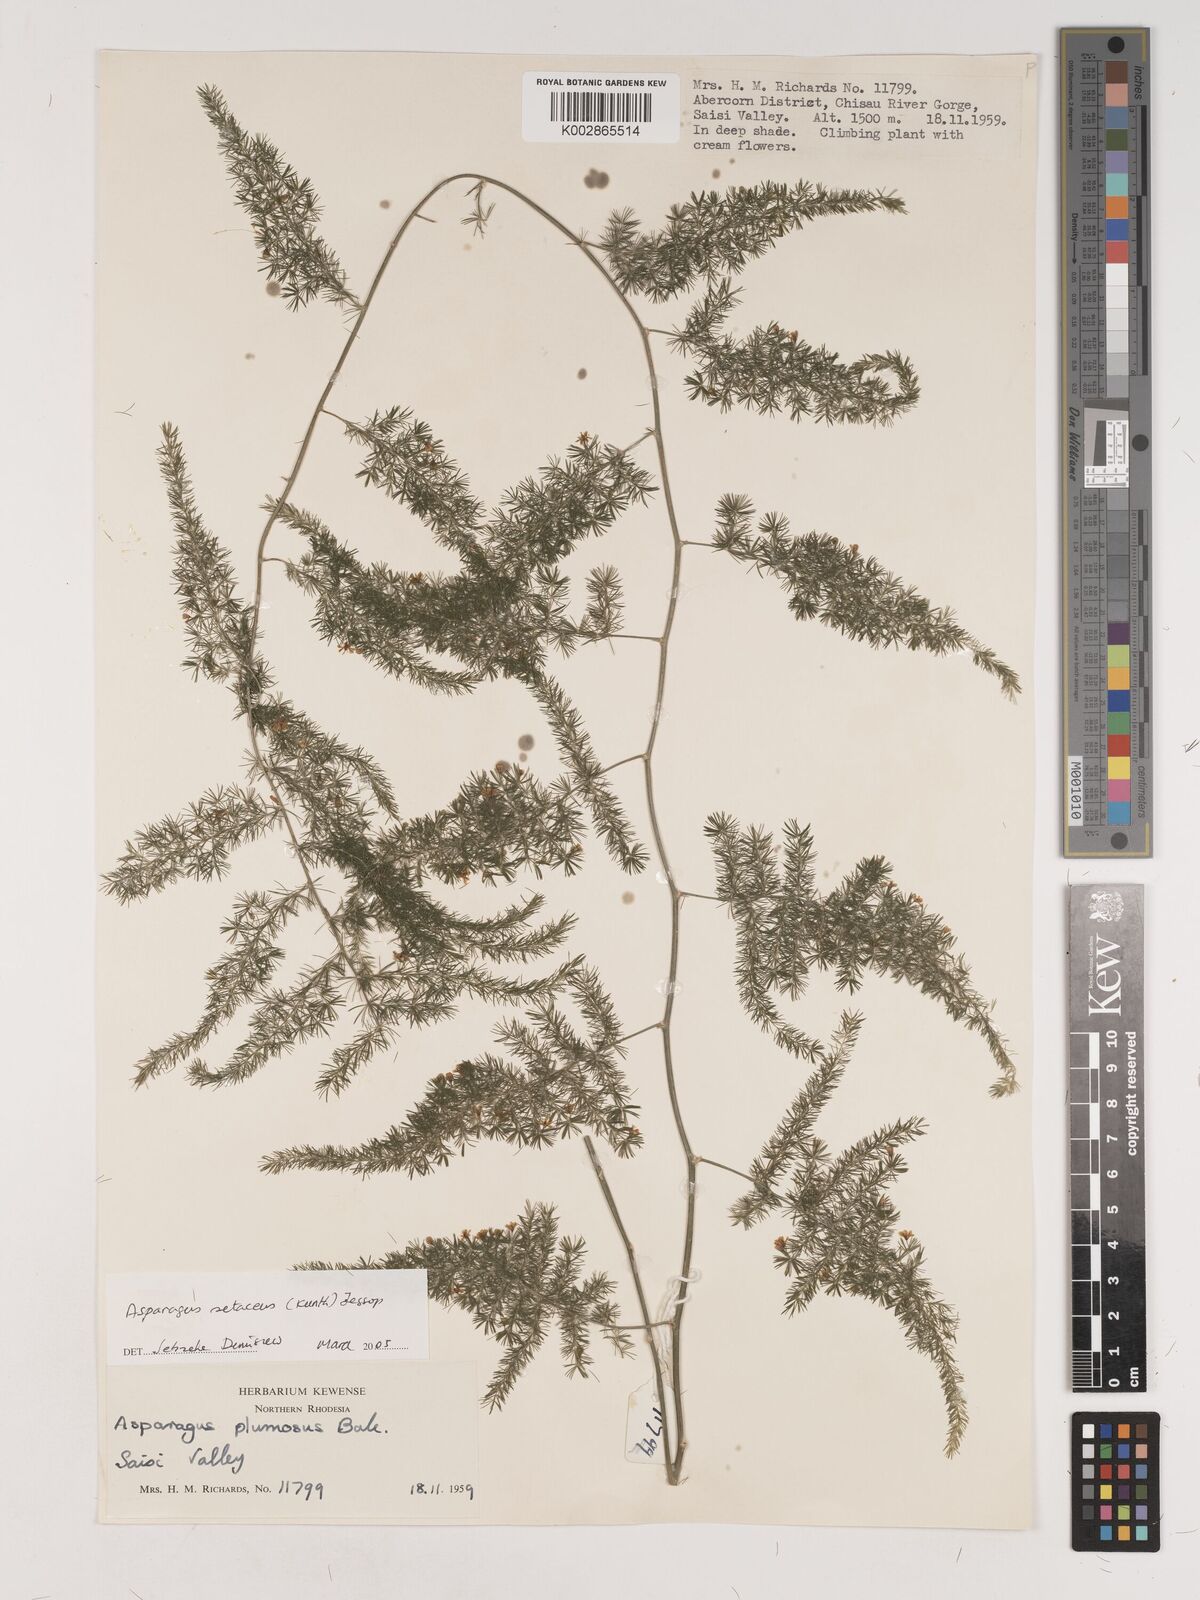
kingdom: Plantae
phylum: Tracheophyta
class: Liliopsida
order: Asparagales
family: Asparagaceae
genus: Asparagus
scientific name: Asparagus setaceus
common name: Common asparagus fern
